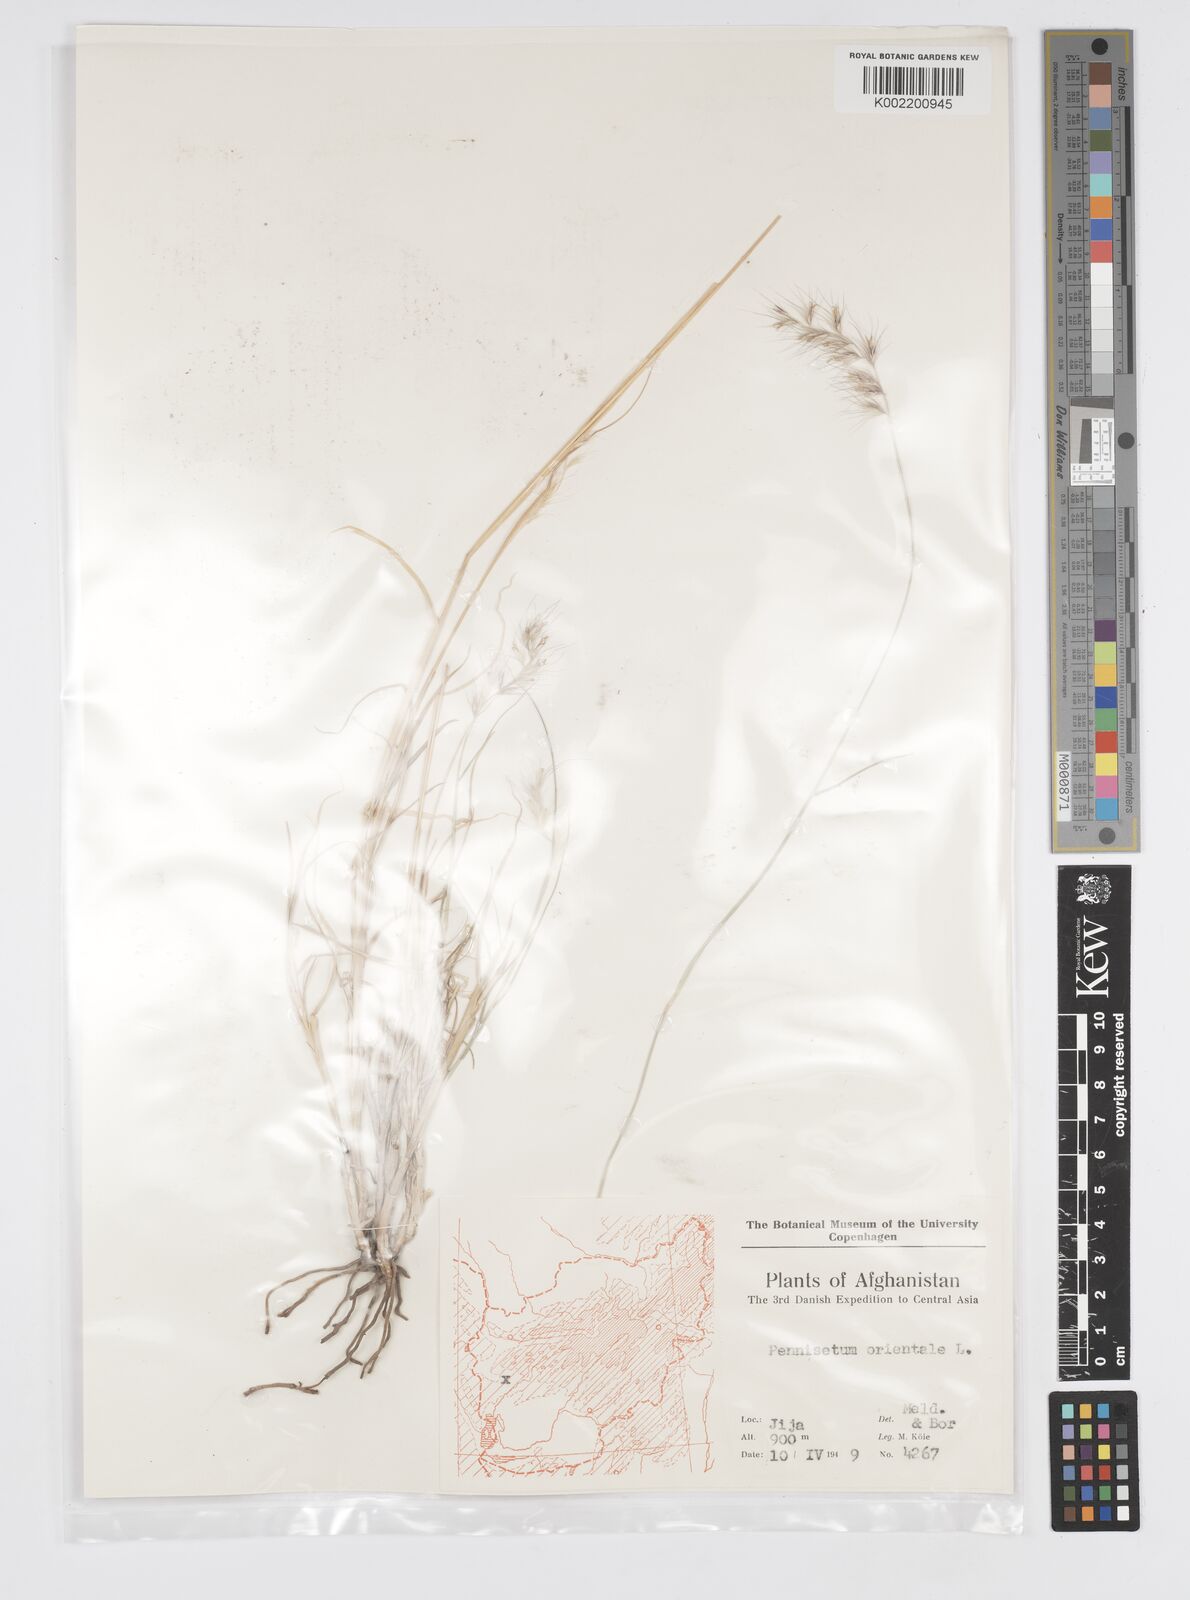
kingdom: Plantae
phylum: Tracheophyta
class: Liliopsida
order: Poales
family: Poaceae
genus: Cenchrus
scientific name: Cenchrus orientalis
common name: Oriental fountain grass
